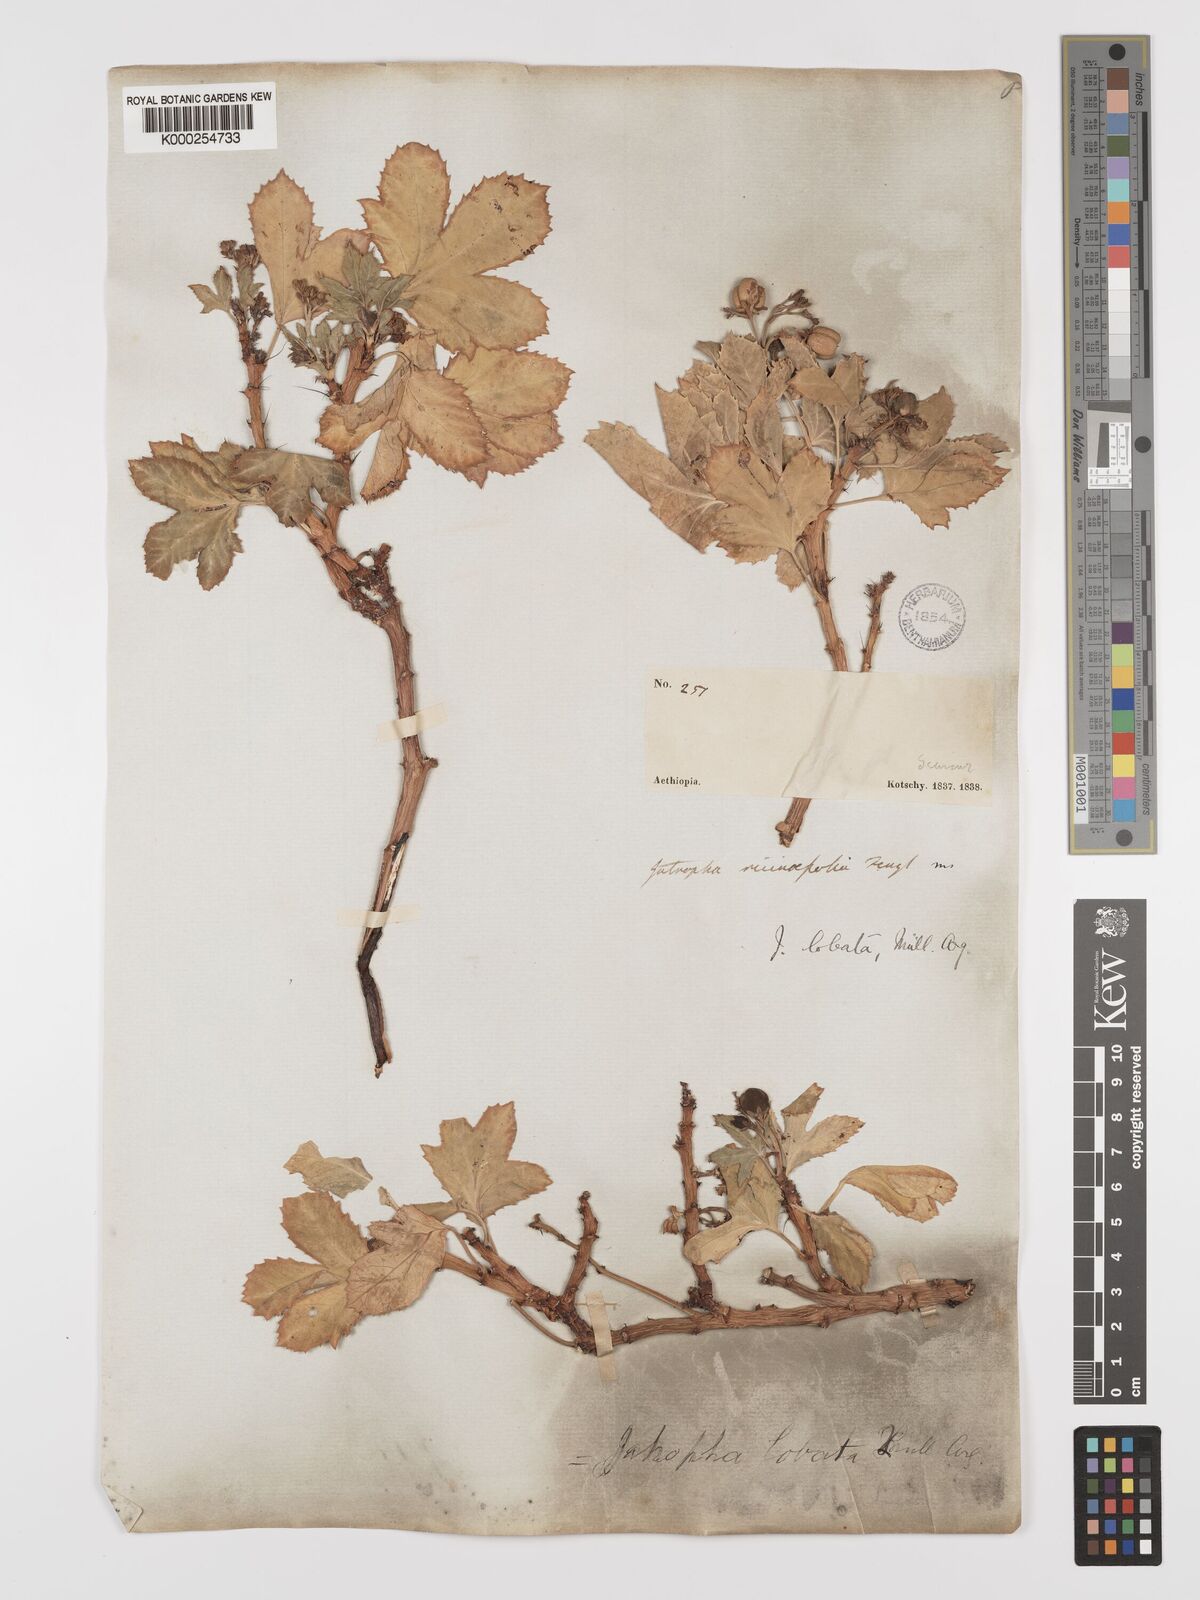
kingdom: Plantae
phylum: Tracheophyta
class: Magnoliopsida
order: Malpighiales
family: Euphorbiaceae
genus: Jatropha
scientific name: Jatropha glauca
